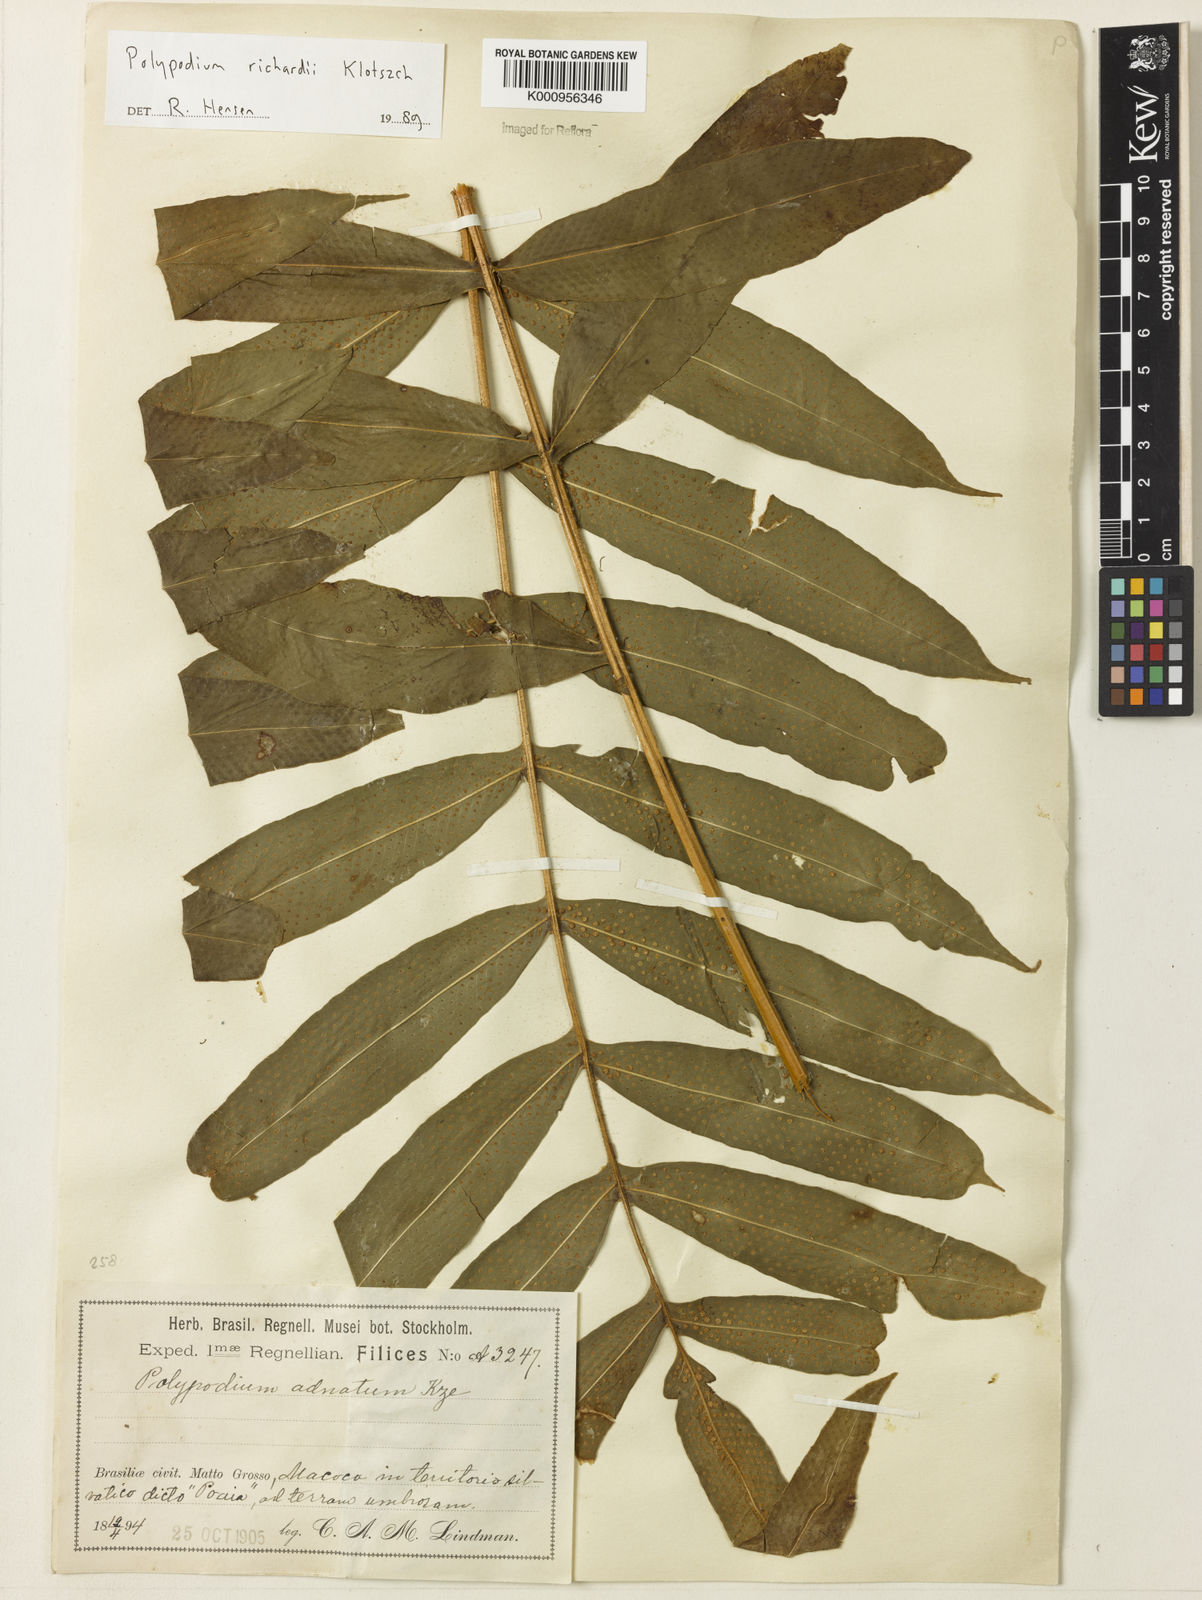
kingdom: Plantae
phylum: Tracheophyta
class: Polypodiopsida
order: Polypodiales
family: Polypodiaceae
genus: Serpocaulon
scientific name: Serpocaulon richardii
